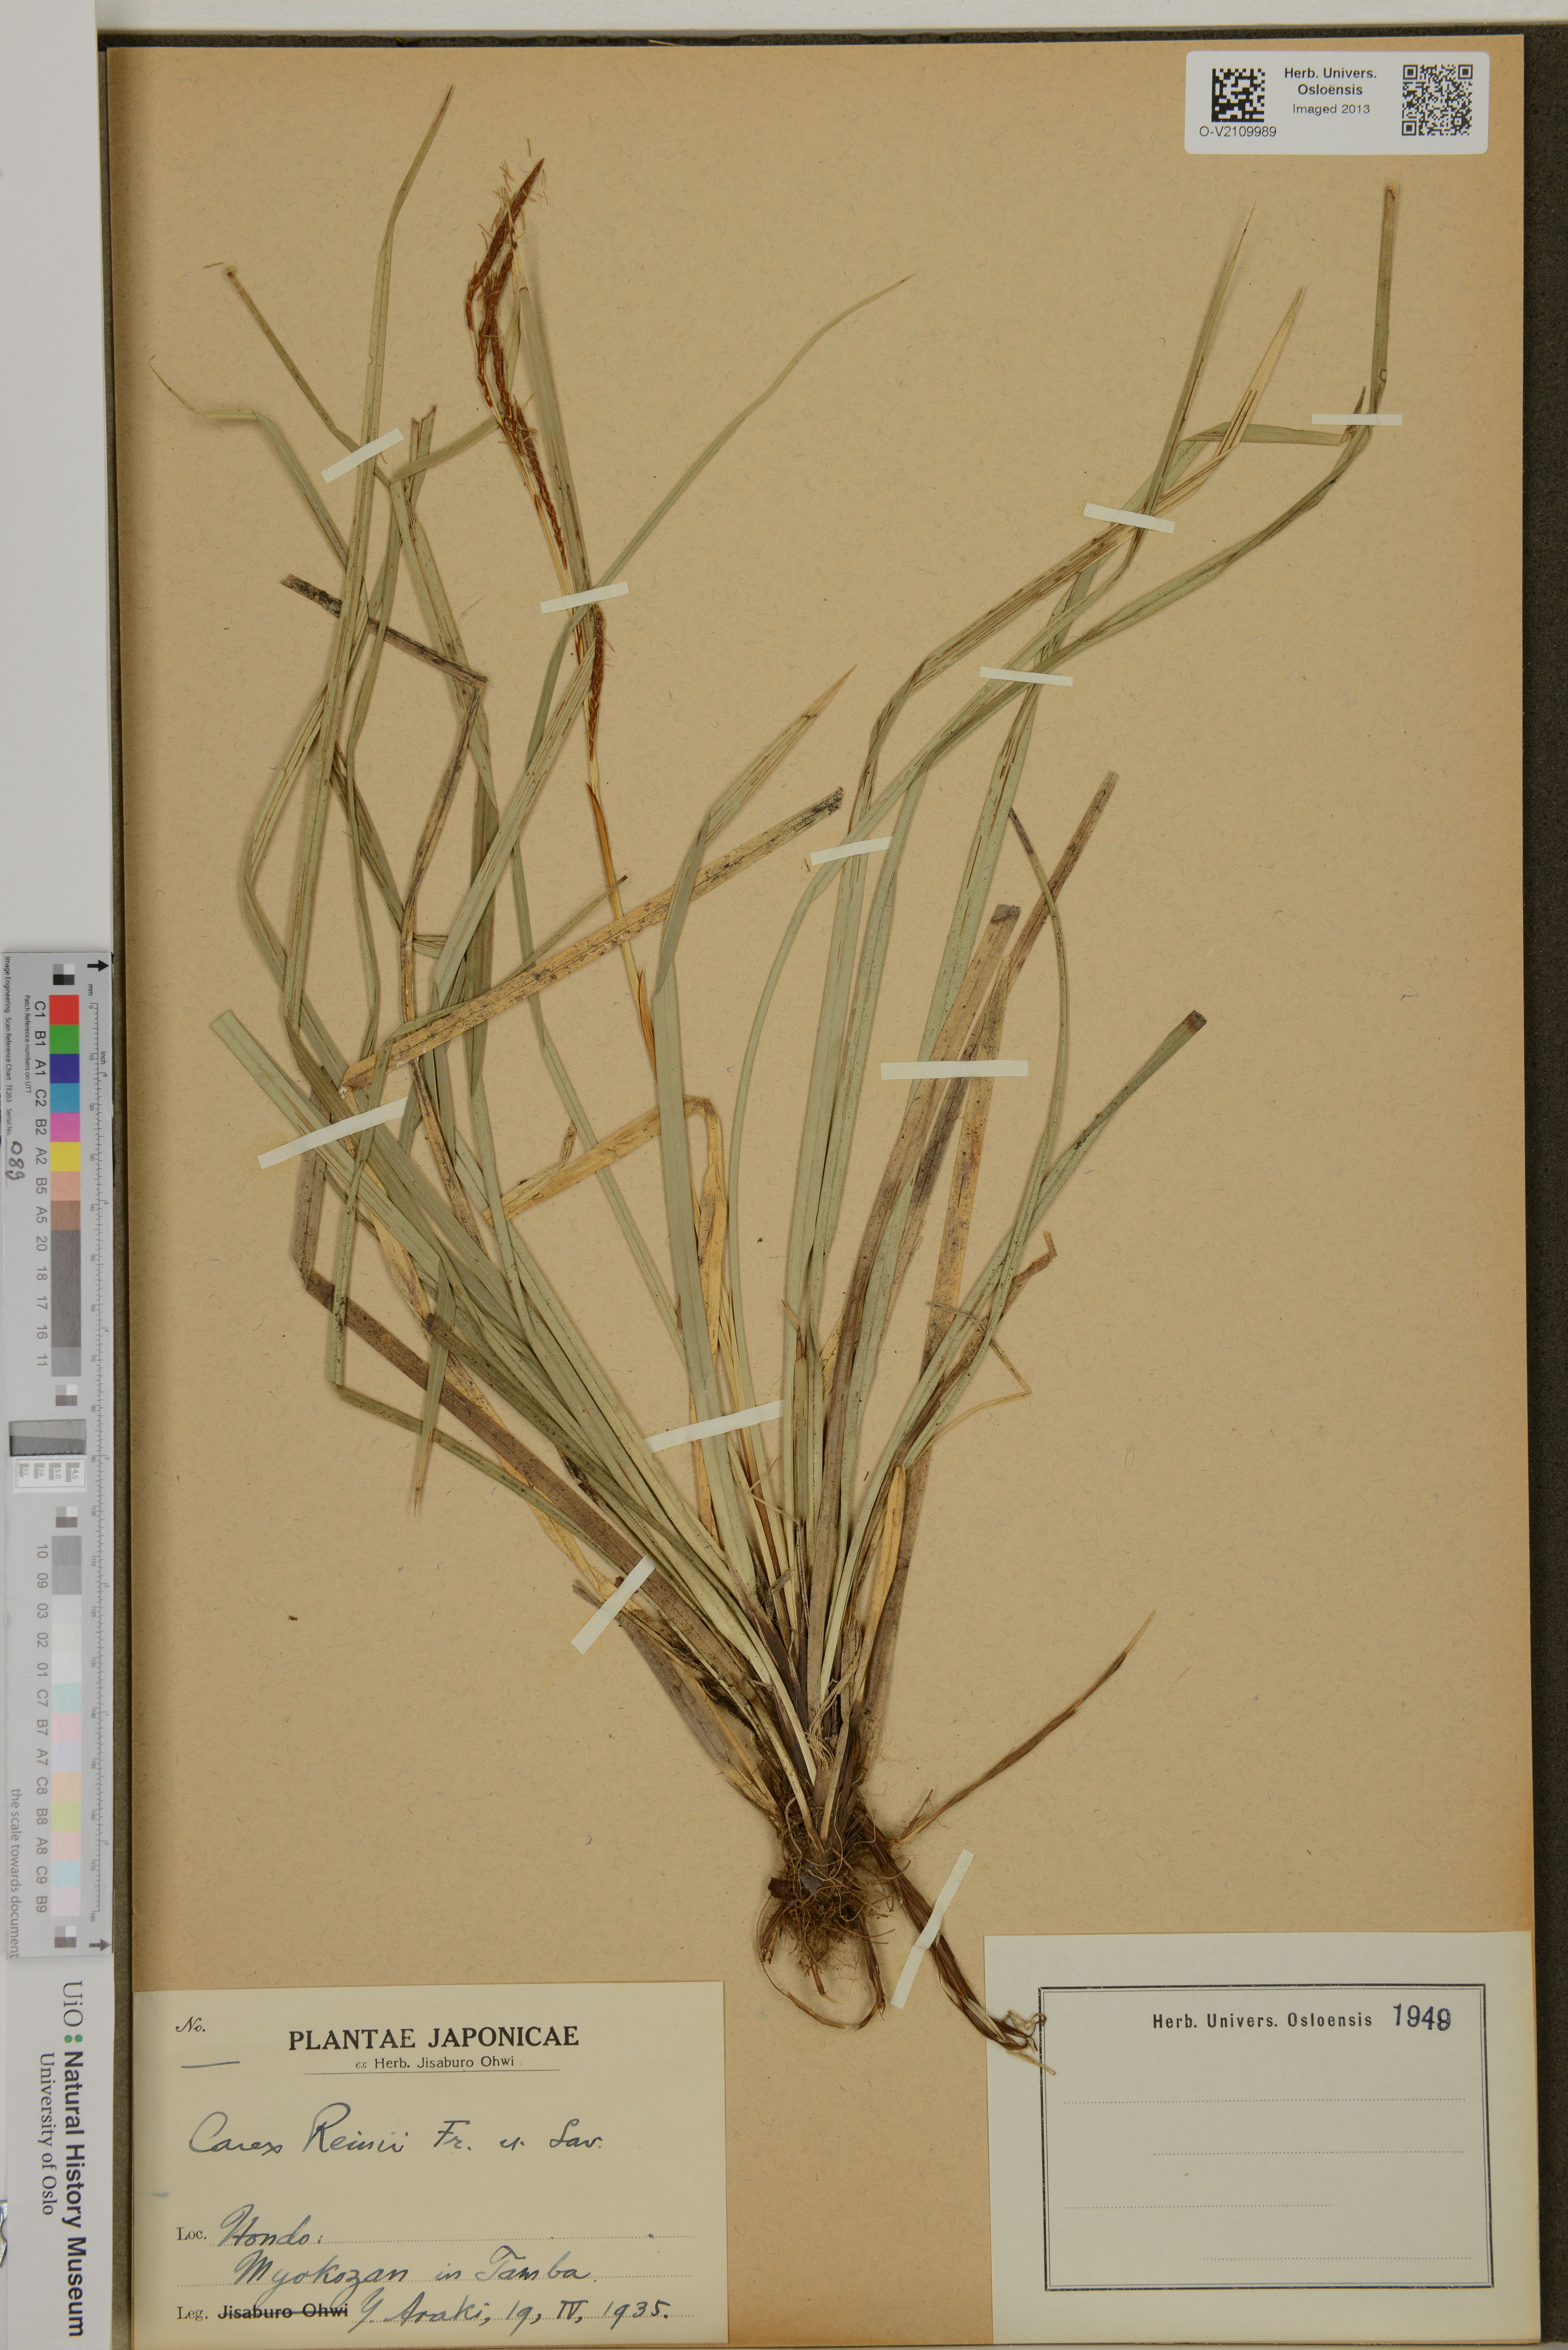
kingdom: Plantae
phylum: Tracheophyta
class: Liliopsida
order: Poales
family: Cyperaceae
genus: Carex
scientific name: Carex reinii
